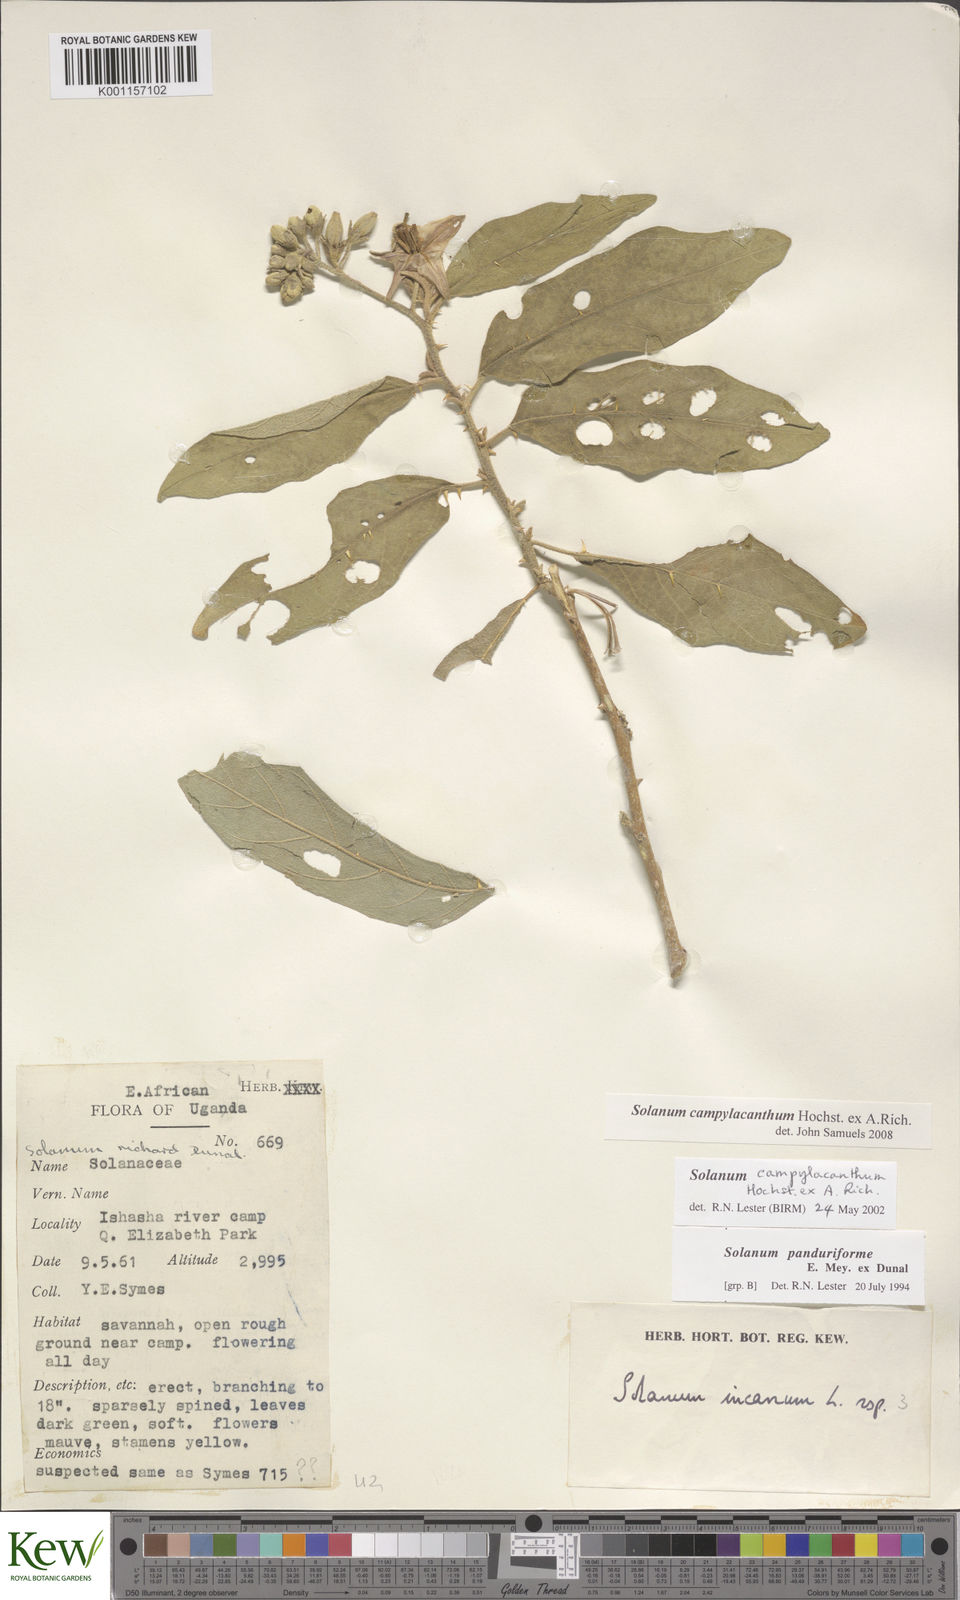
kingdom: Plantae
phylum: Tracheophyta
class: Magnoliopsida
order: Solanales
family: Solanaceae
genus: Solanum
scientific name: Solanum campylacanthum
